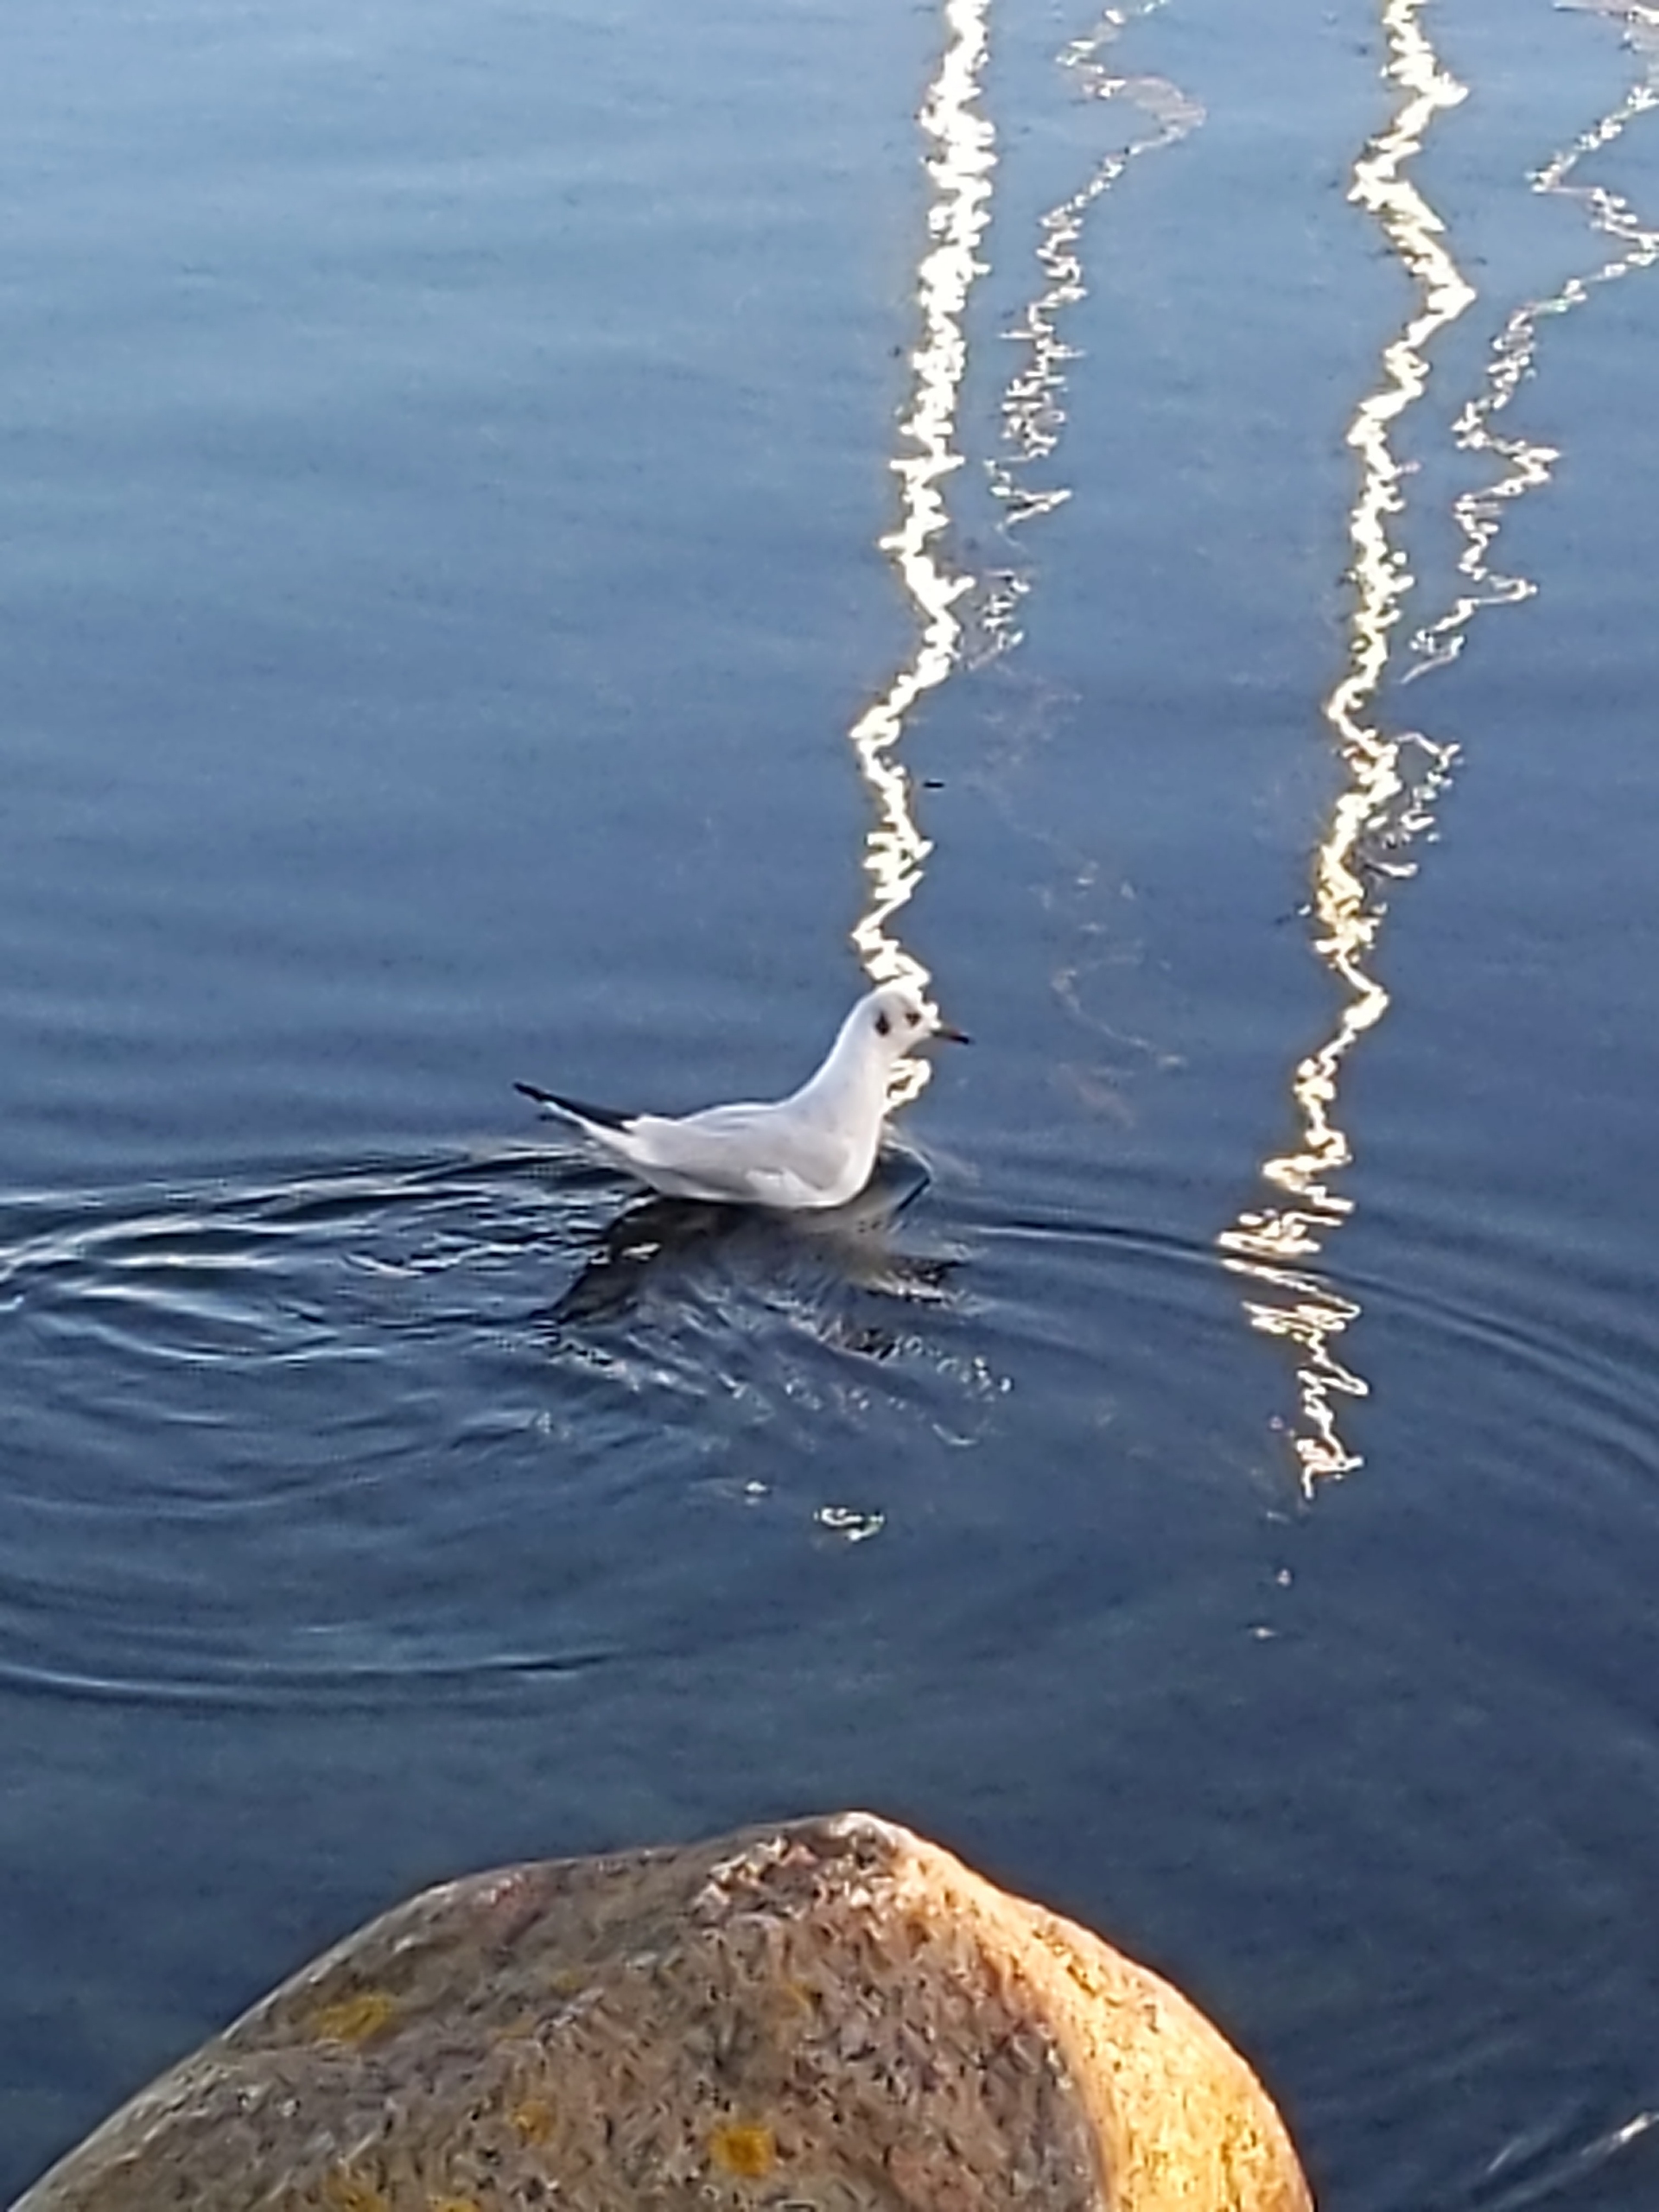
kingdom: Animalia
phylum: Chordata
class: Aves
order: Charadriiformes
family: Laridae
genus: Chroicocephalus
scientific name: Chroicocephalus ridibundus
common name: Hættemåge
